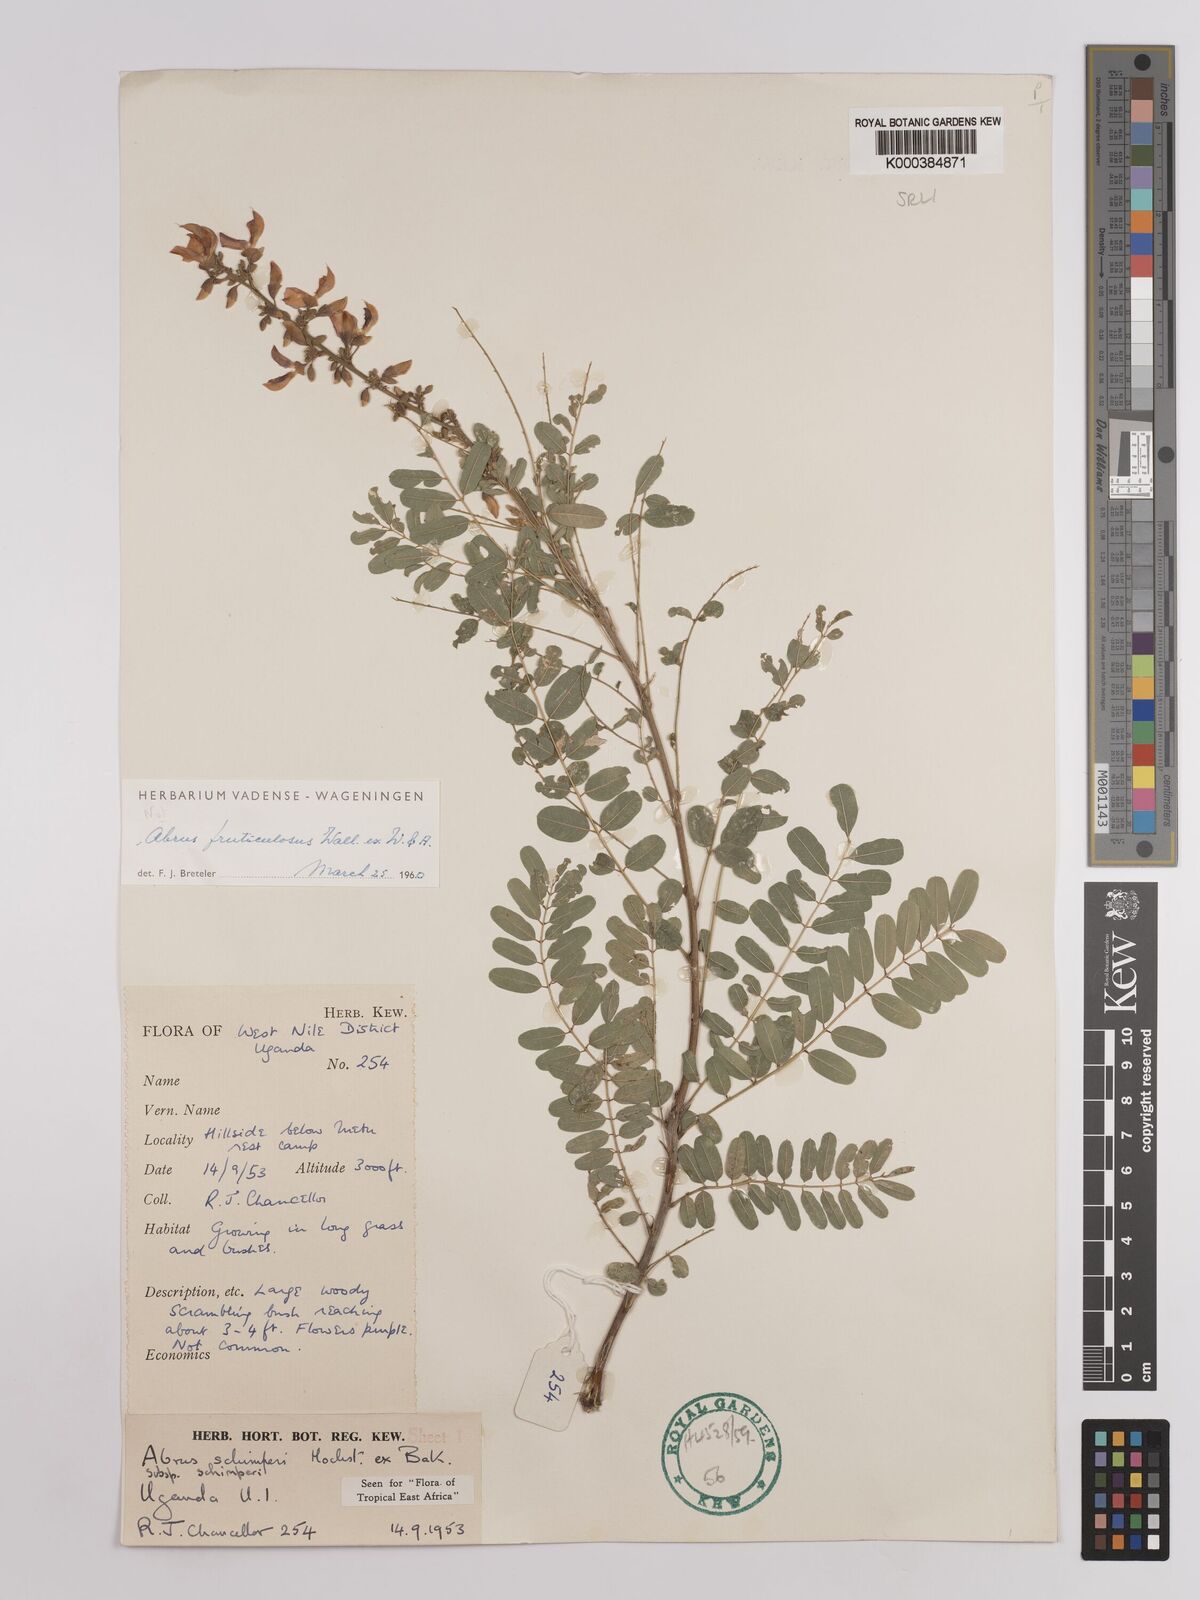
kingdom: Plantae
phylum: Tracheophyta
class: Magnoliopsida
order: Fabales
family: Fabaceae
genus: Abrus
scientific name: Abrus fruticulosus
